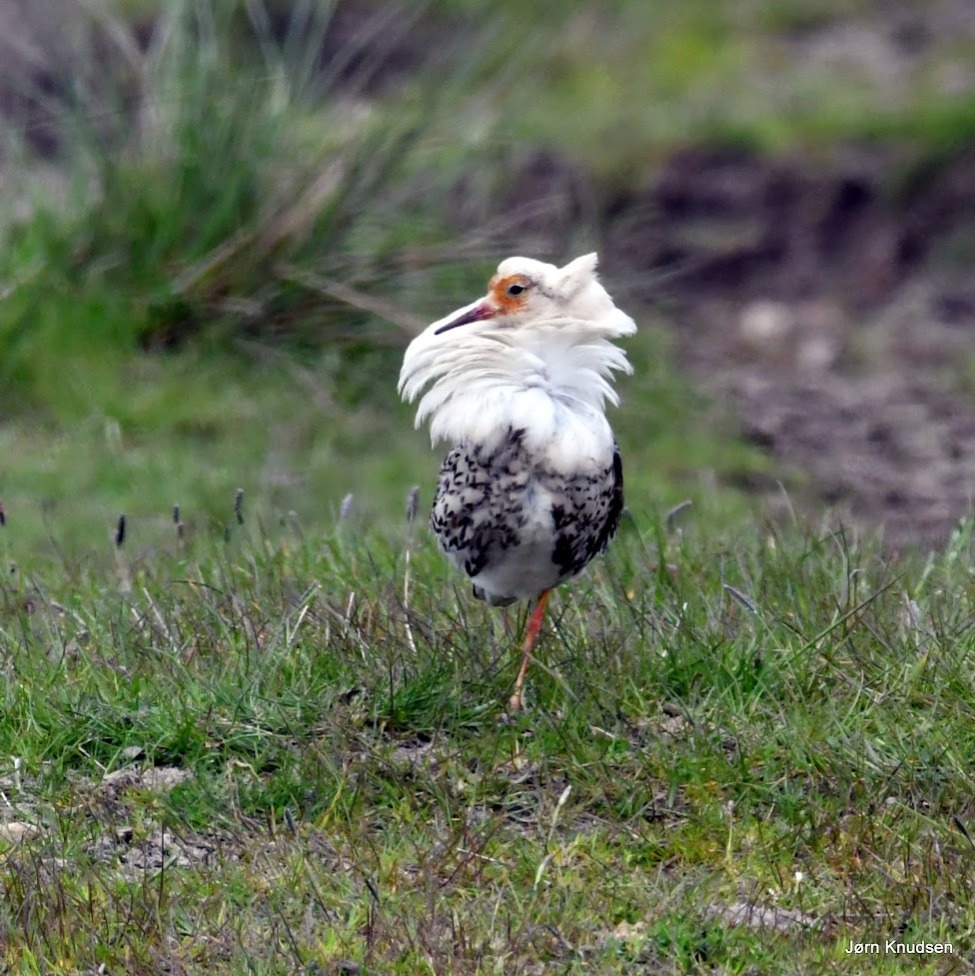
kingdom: Animalia
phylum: Chordata
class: Aves
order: Charadriiformes
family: Scolopacidae
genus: Calidris
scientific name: Calidris pugnax
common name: Brushane
